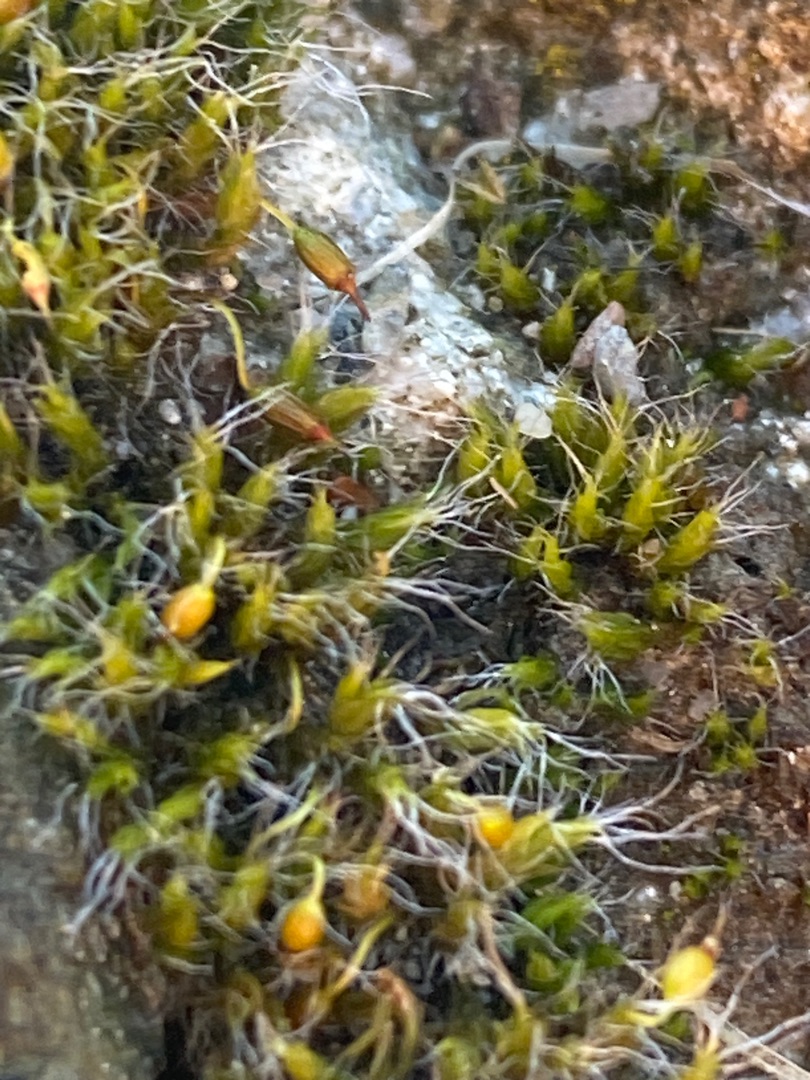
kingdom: Plantae
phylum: Bryophyta
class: Bryopsida
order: Grimmiales
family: Grimmiaceae
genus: Grimmia
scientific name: Grimmia pulvinata
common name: Pude-gråmos
